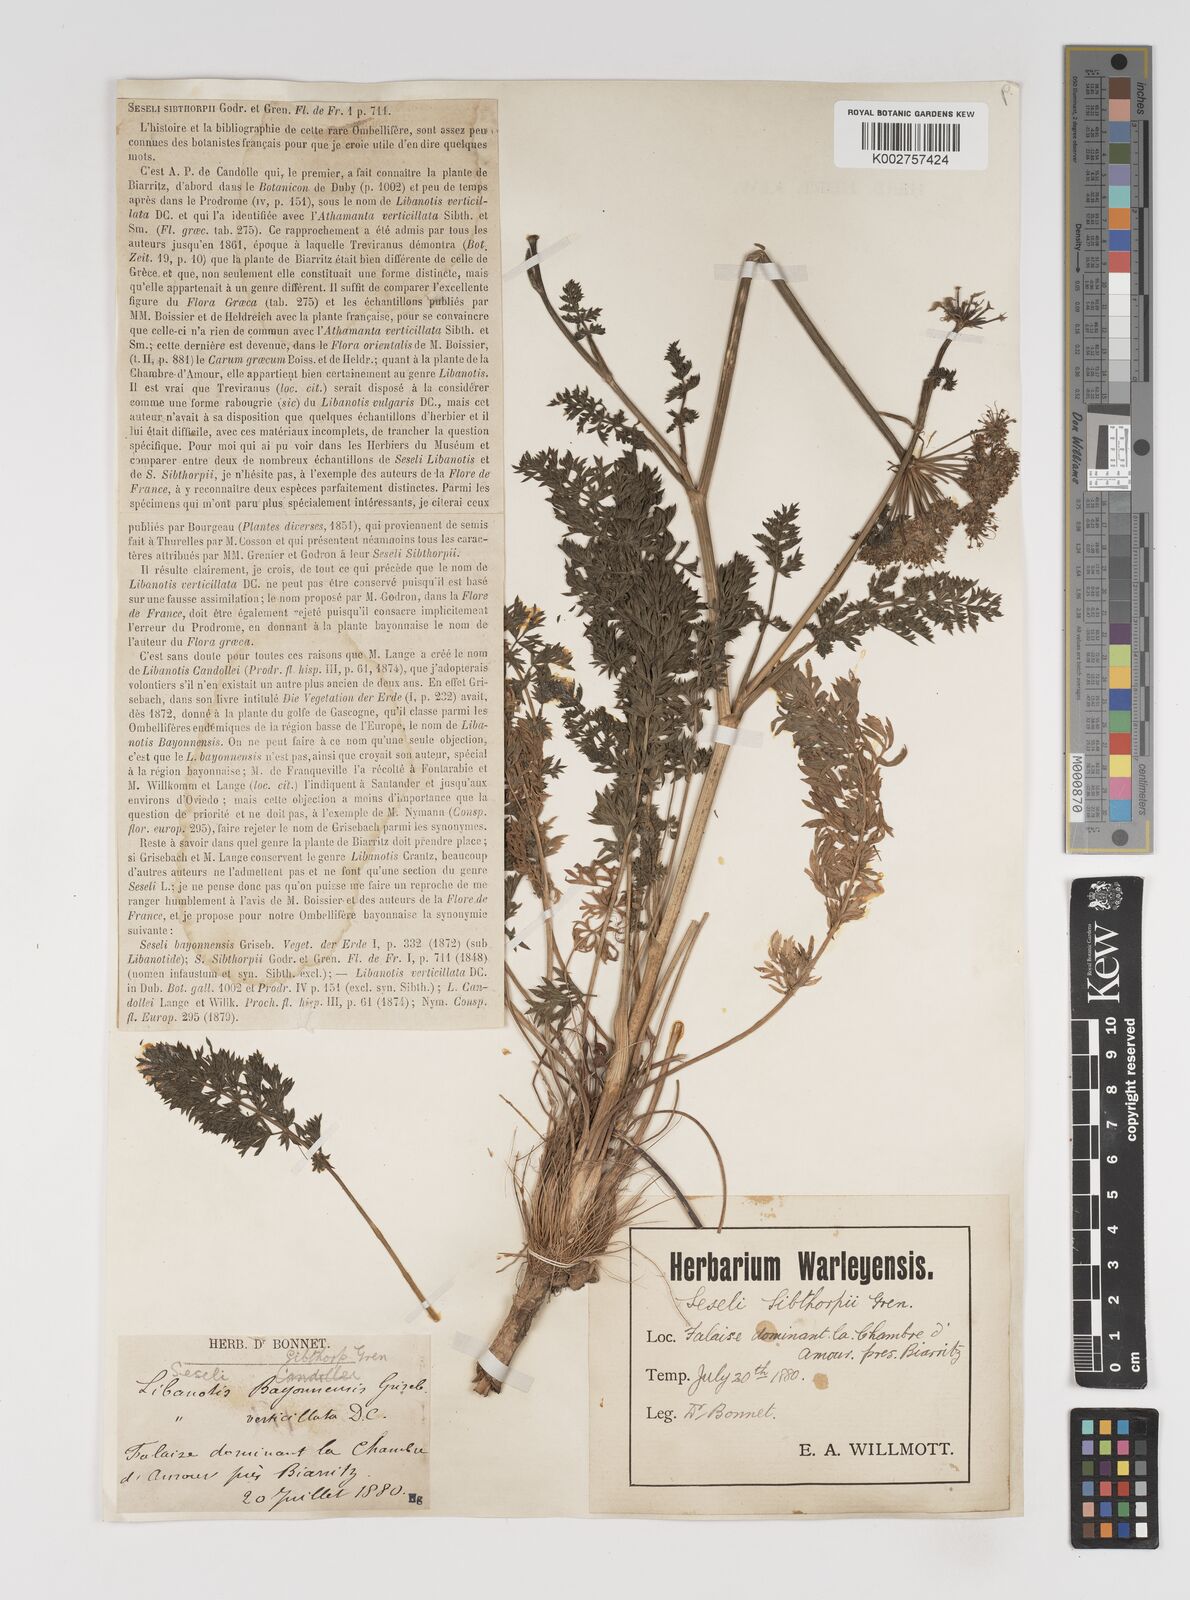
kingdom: Plantae
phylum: Tracheophyta
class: Magnoliopsida
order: Apiales
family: Apiaceae
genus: Seseli
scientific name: Seseli sibthorpii
